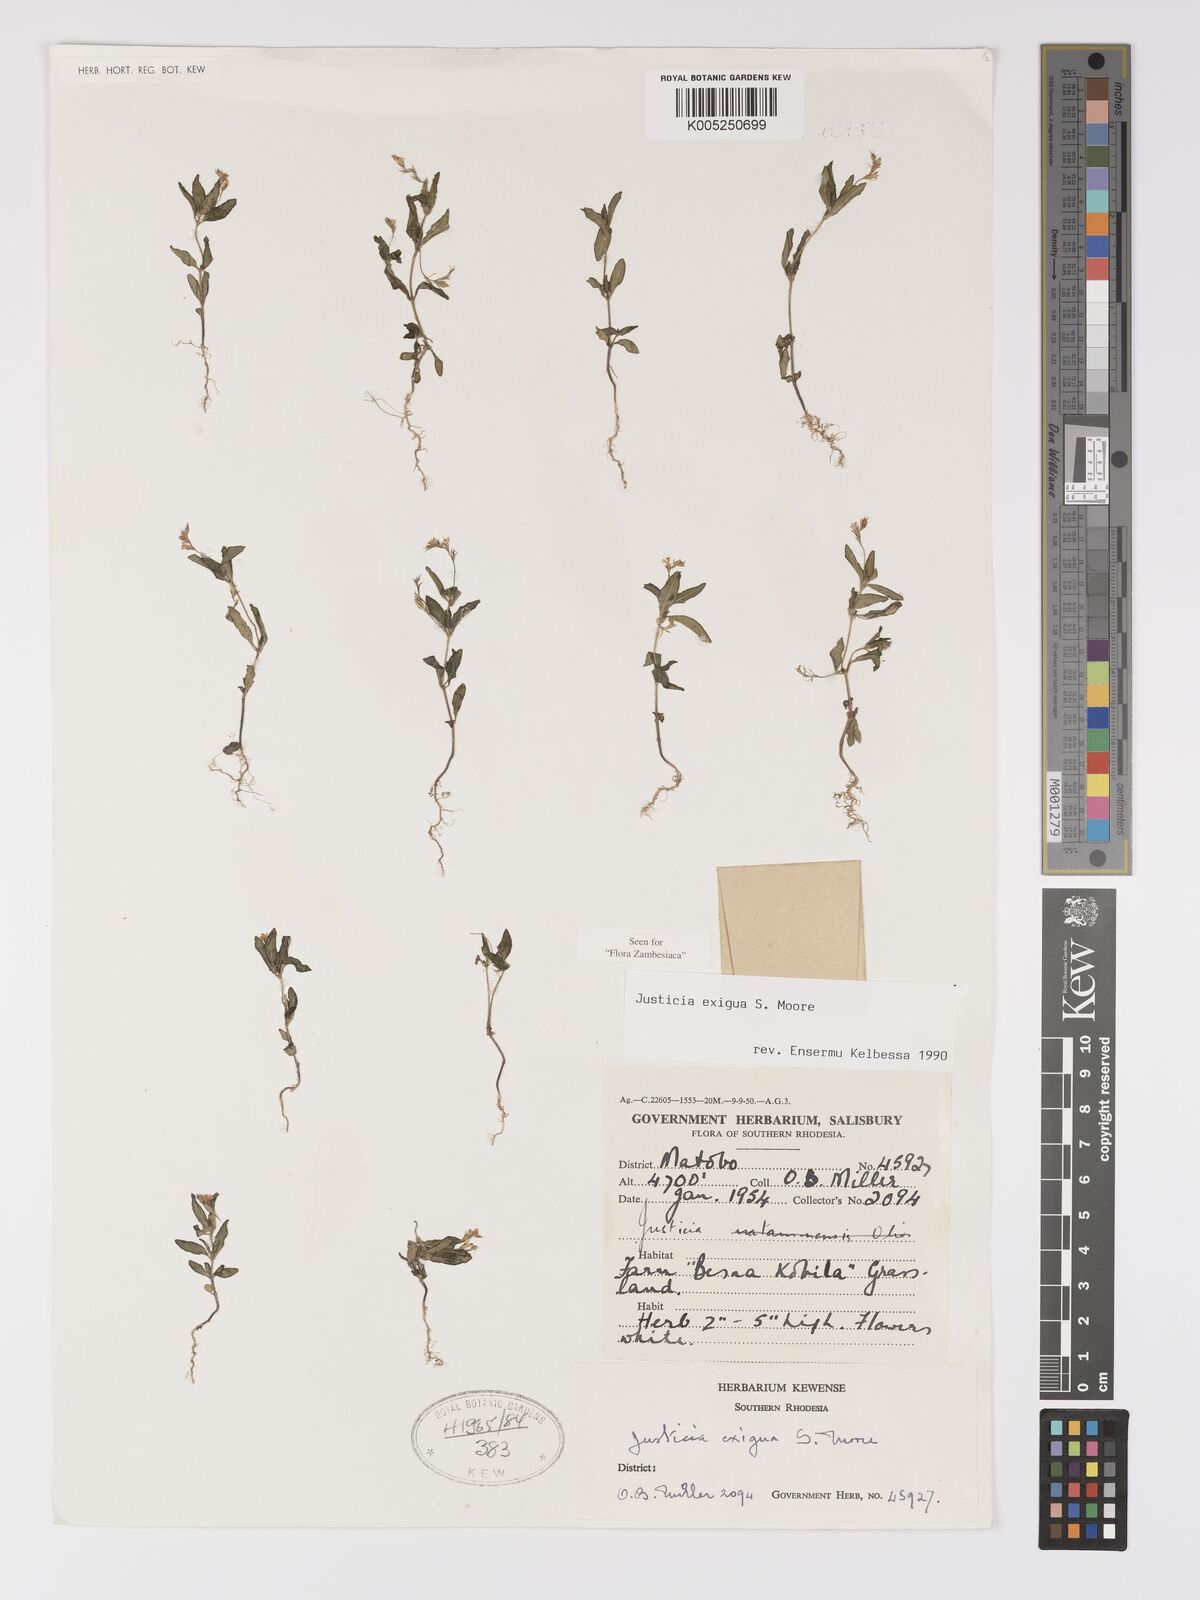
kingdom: Plantae
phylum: Tracheophyta
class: Magnoliopsida
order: Lamiales
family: Acanthaceae
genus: Justicia
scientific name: Justicia exigua
